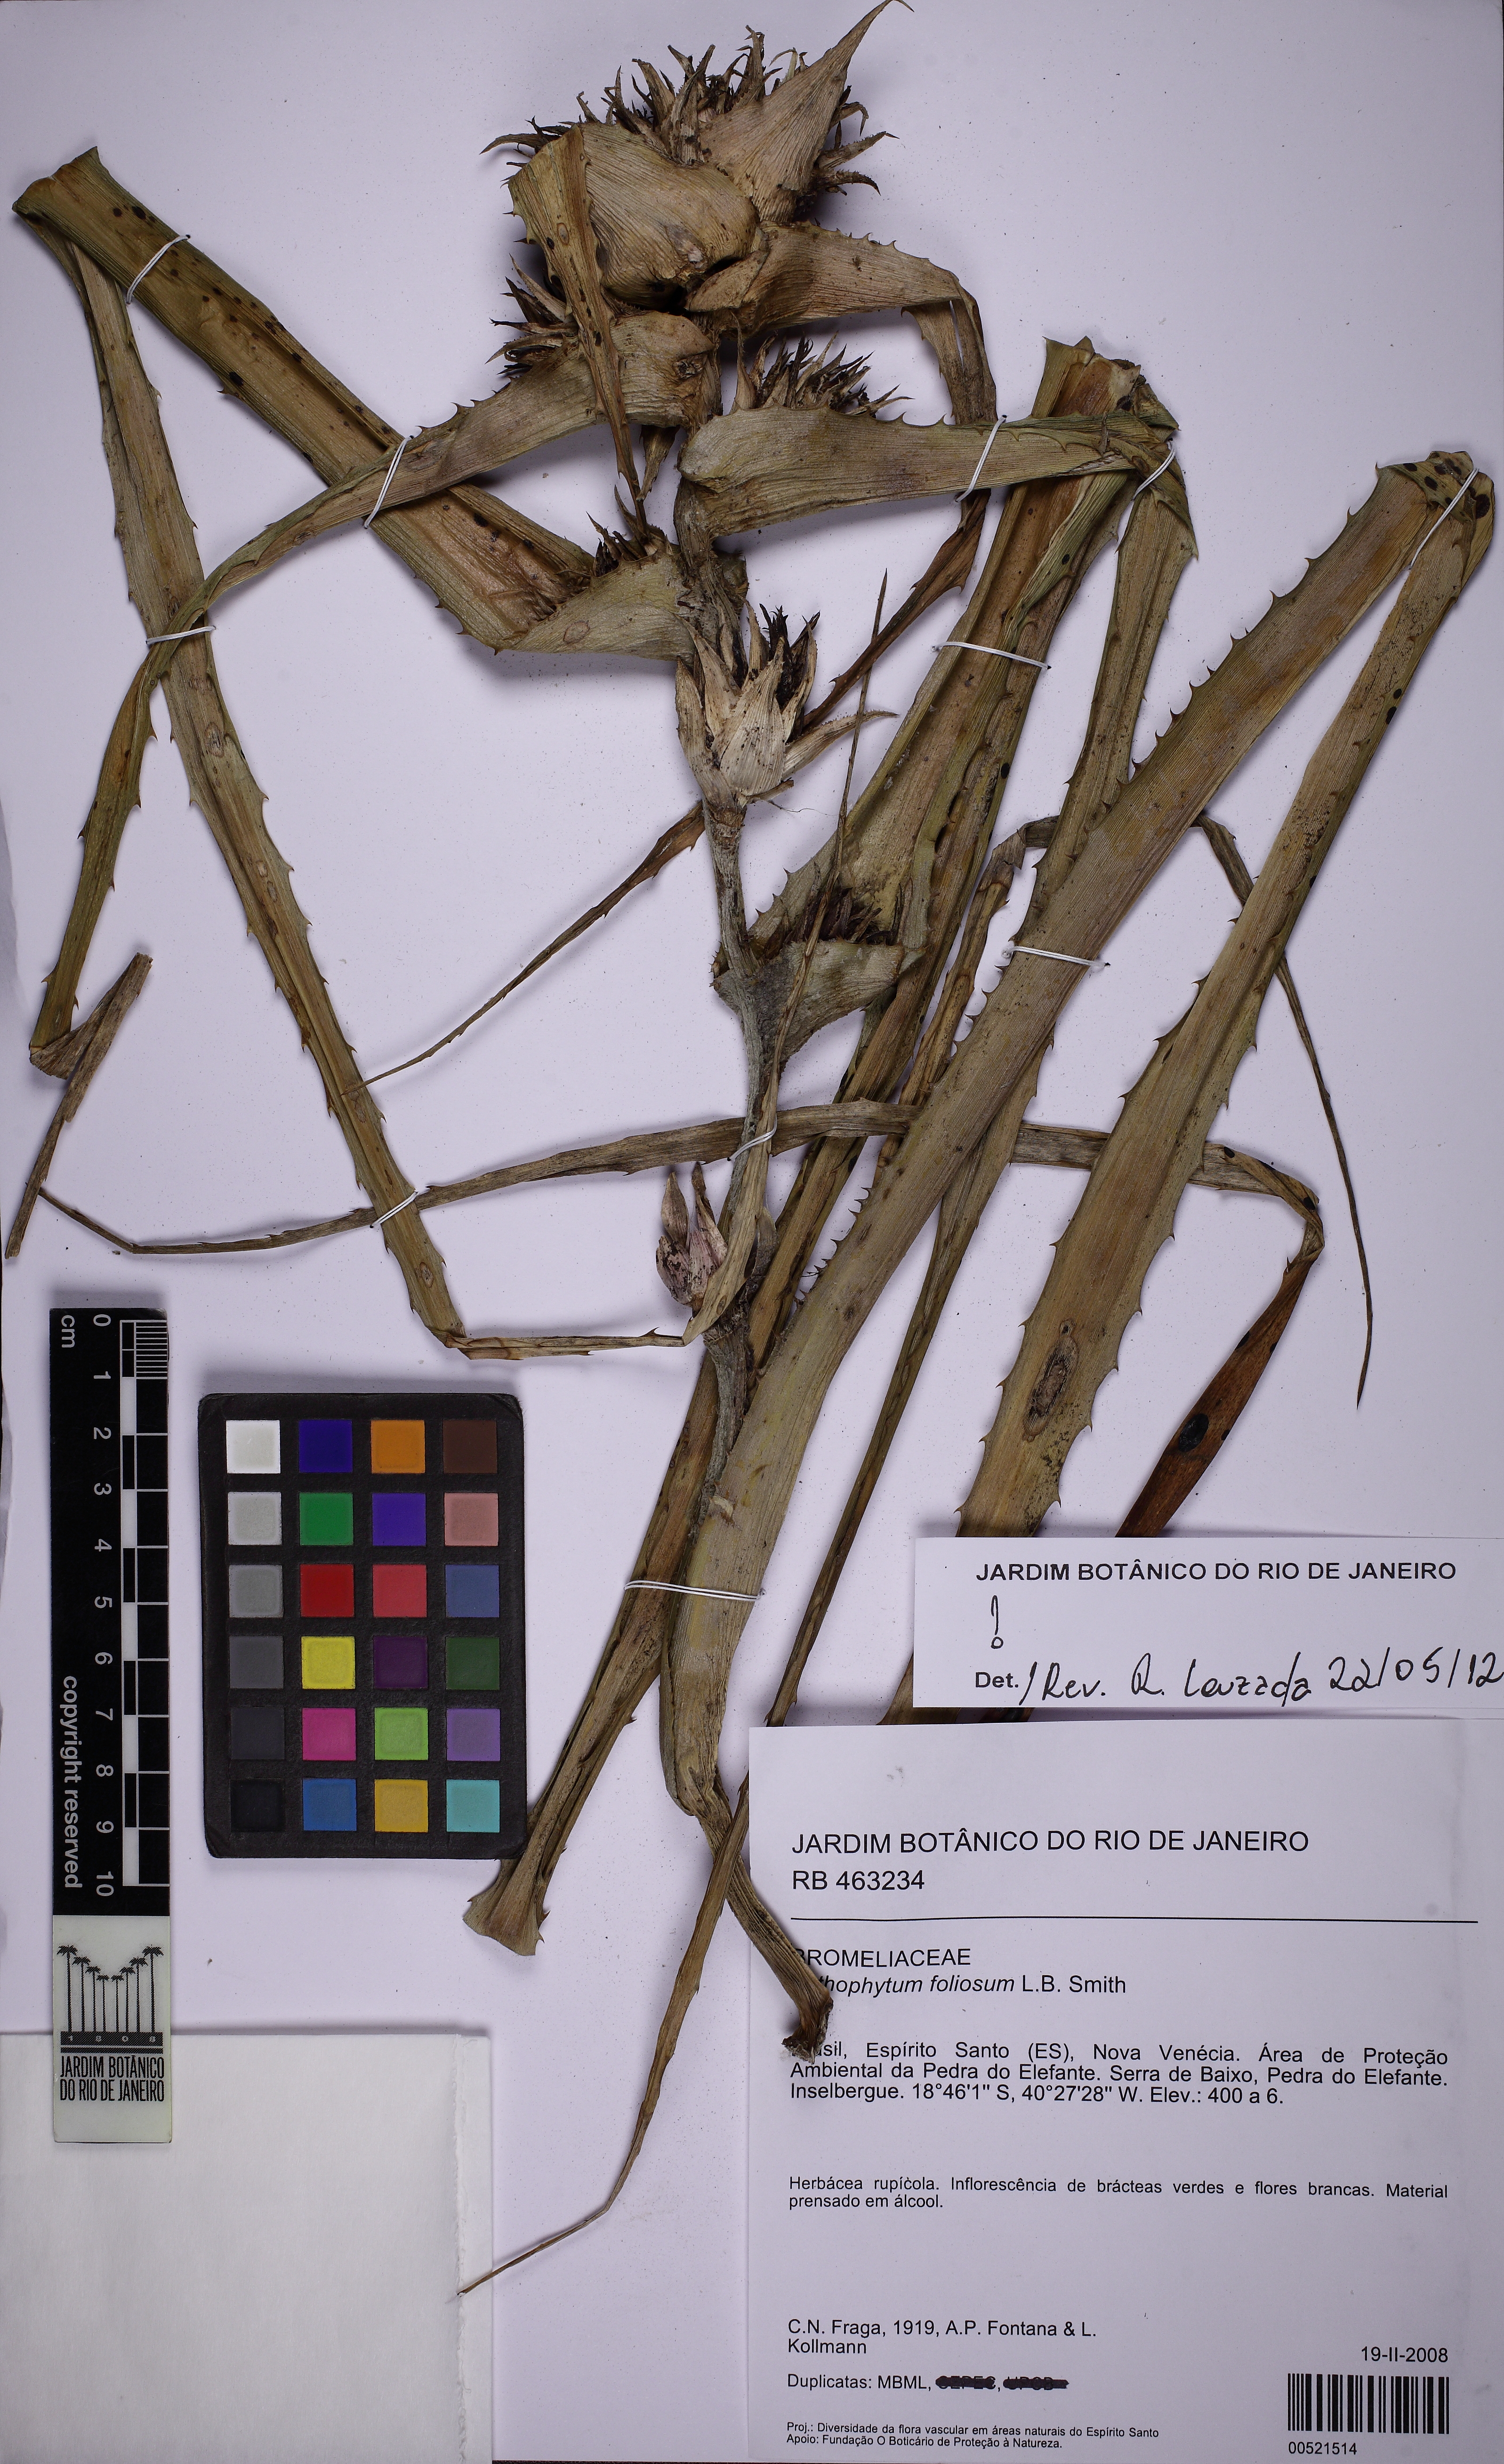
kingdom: Plantae
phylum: Tracheophyta
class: Liliopsida
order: Poales
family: Bromeliaceae
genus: Orthophytum
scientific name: Orthophytum foliosum
